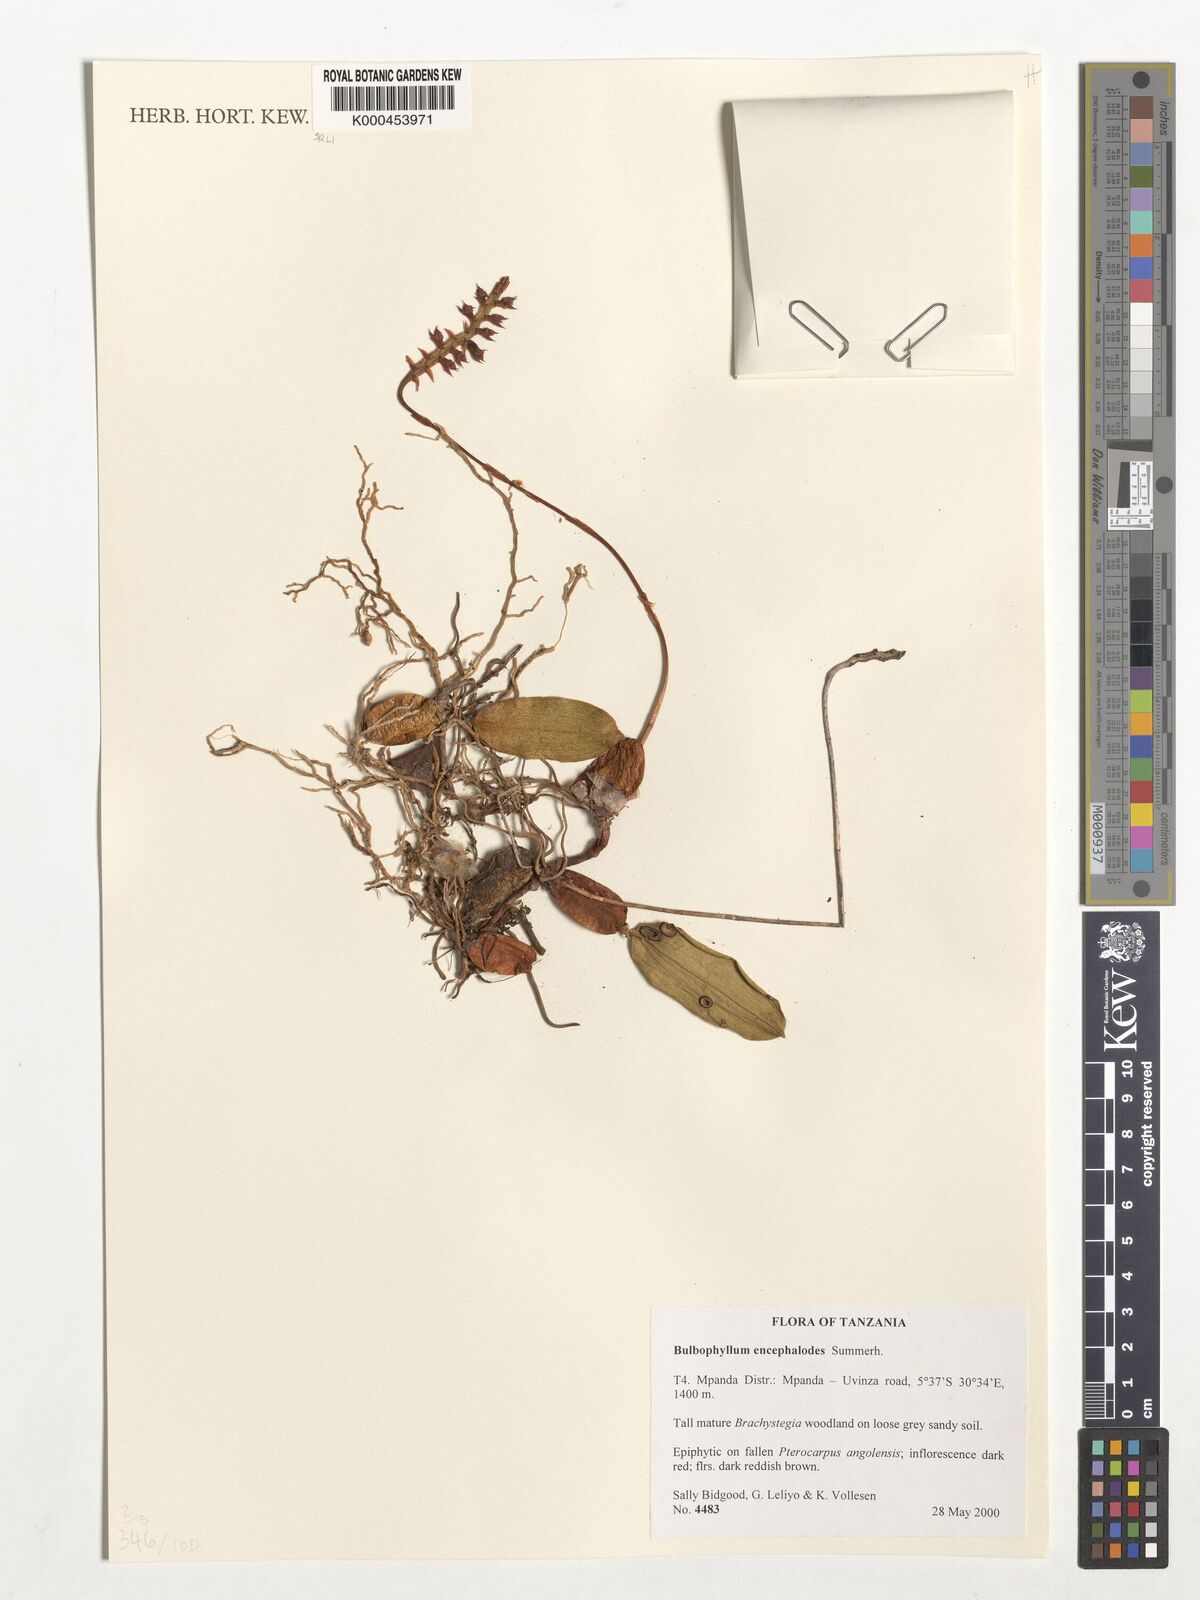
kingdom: Plantae
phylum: Tracheophyta
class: Liliopsida
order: Asparagales
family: Orchidaceae
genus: Bulbophyllum
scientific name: Bulbophyllum encephalodes
